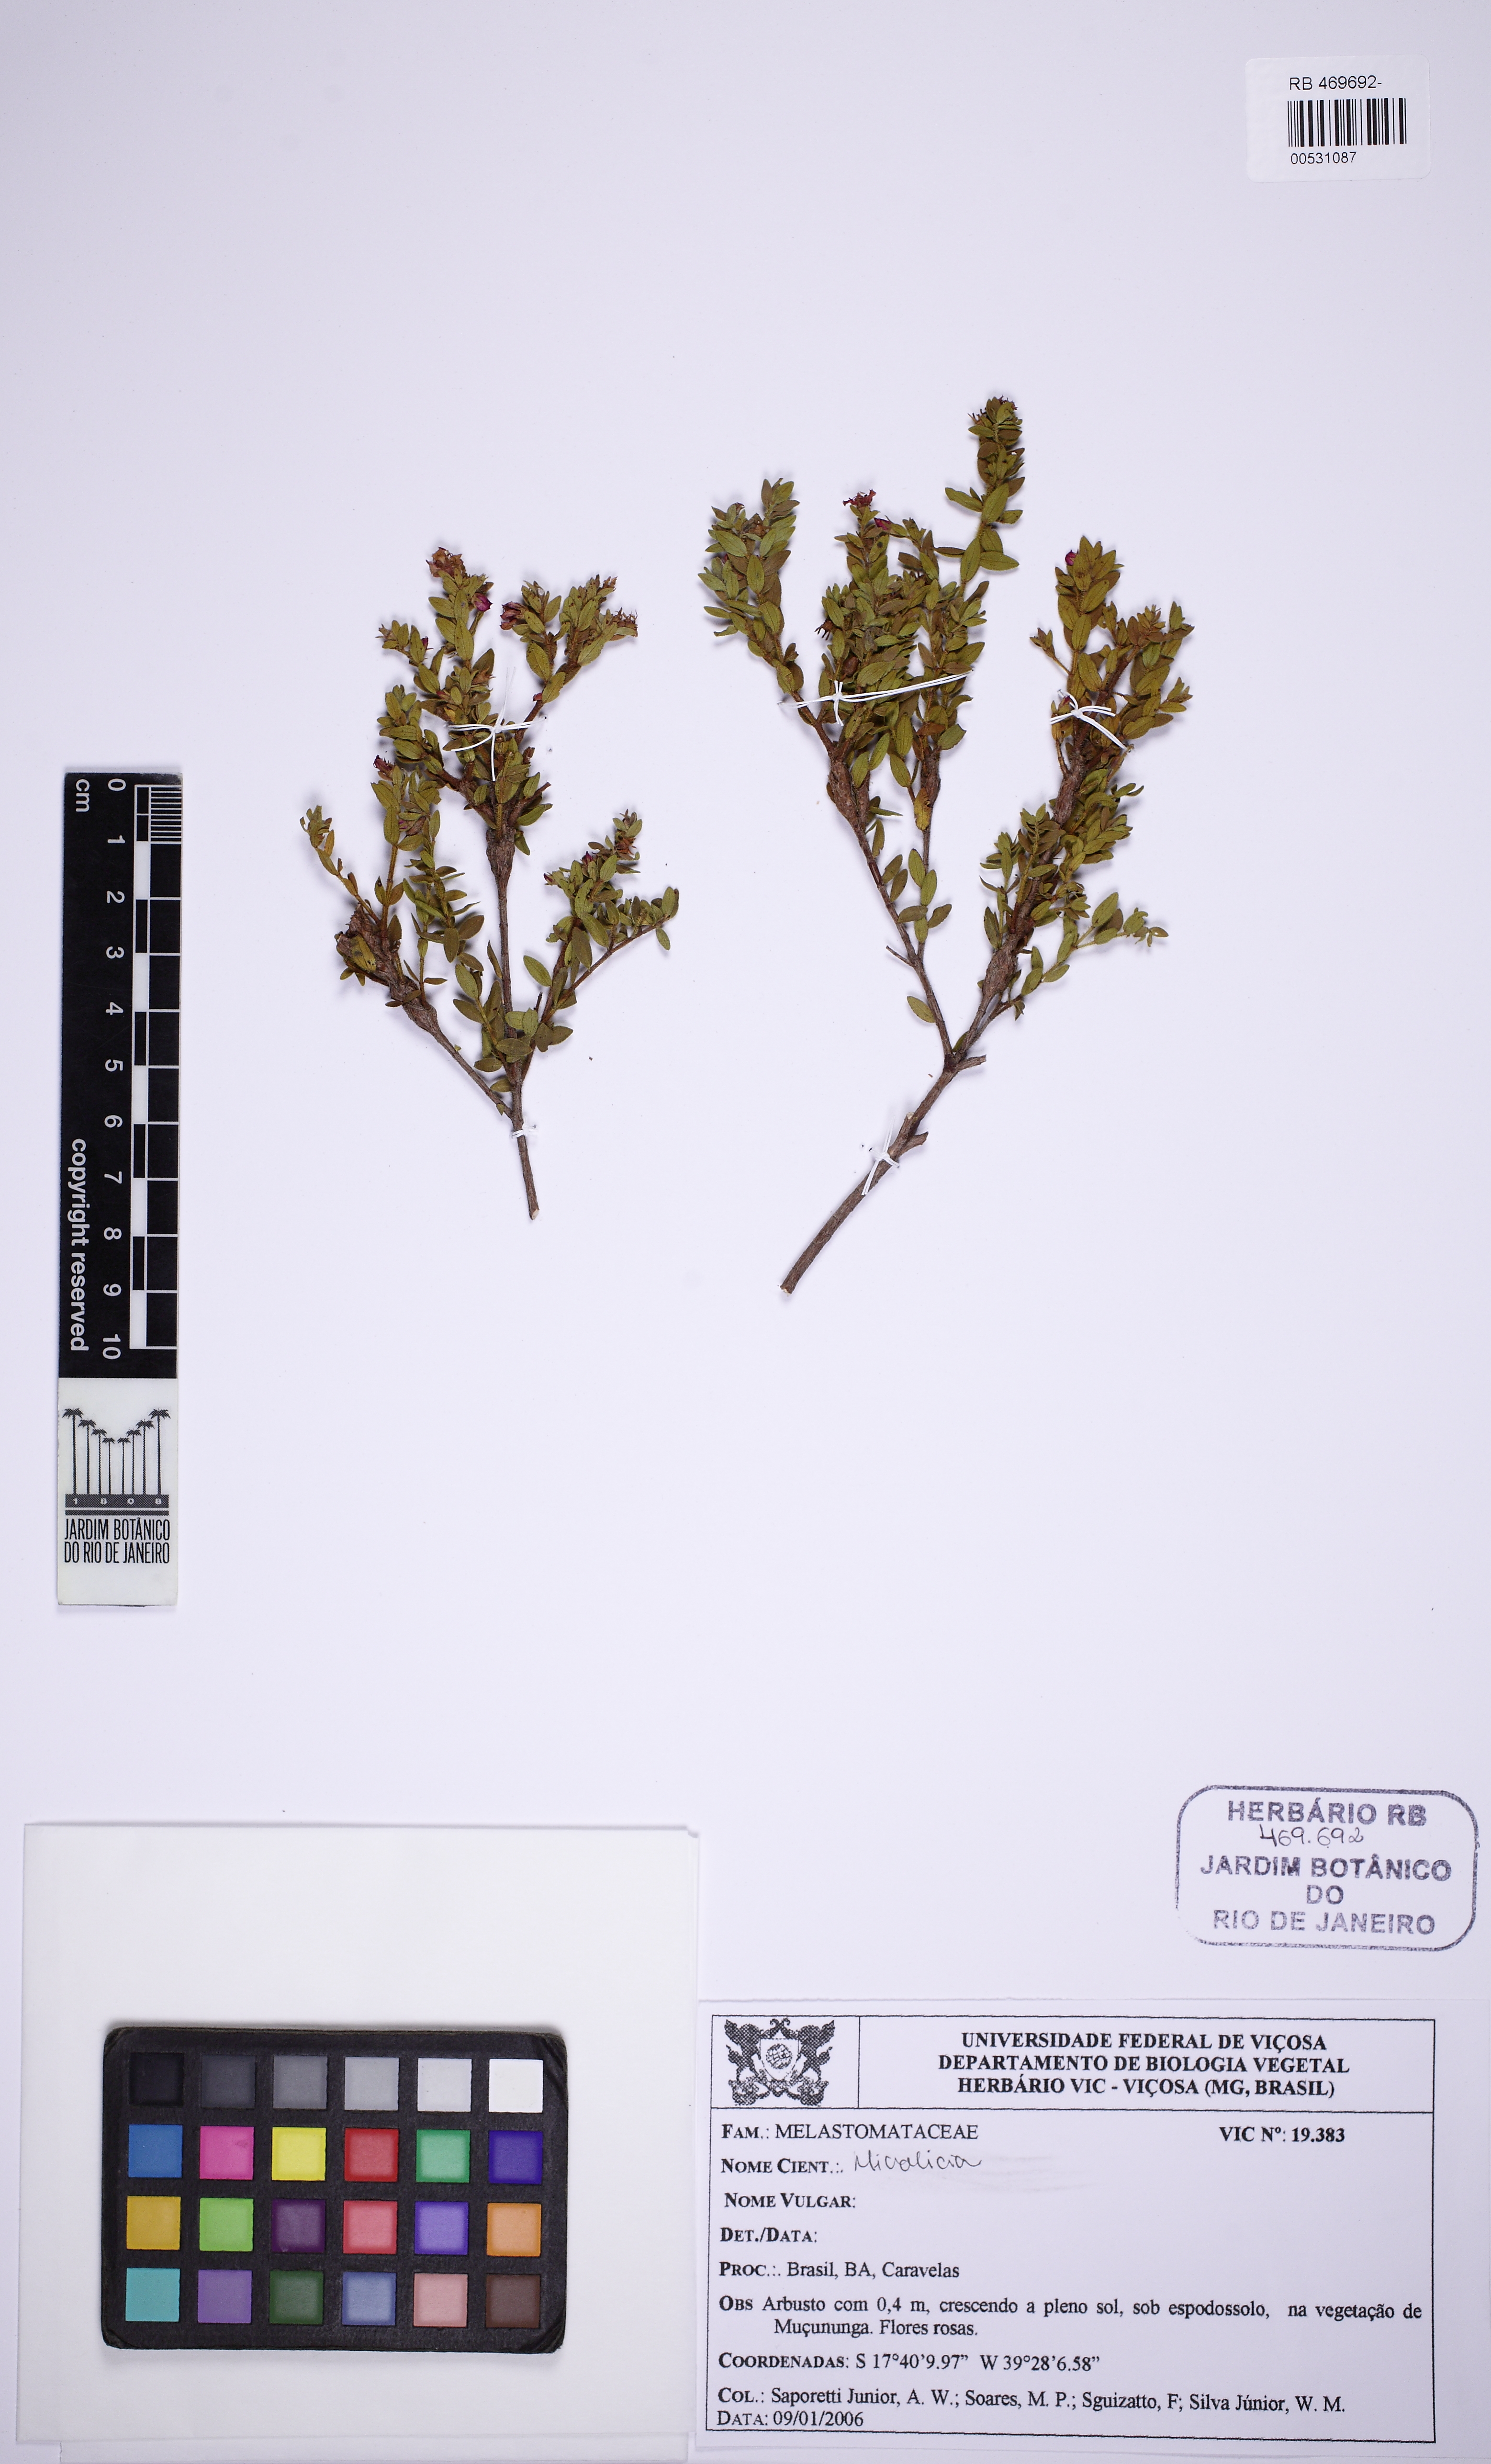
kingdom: Plantae
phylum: Tracheophyta
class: Magnoliopsida
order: Myrtales
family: Melastomataceae
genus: Microlicia
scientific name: Microlicia subsetosa
